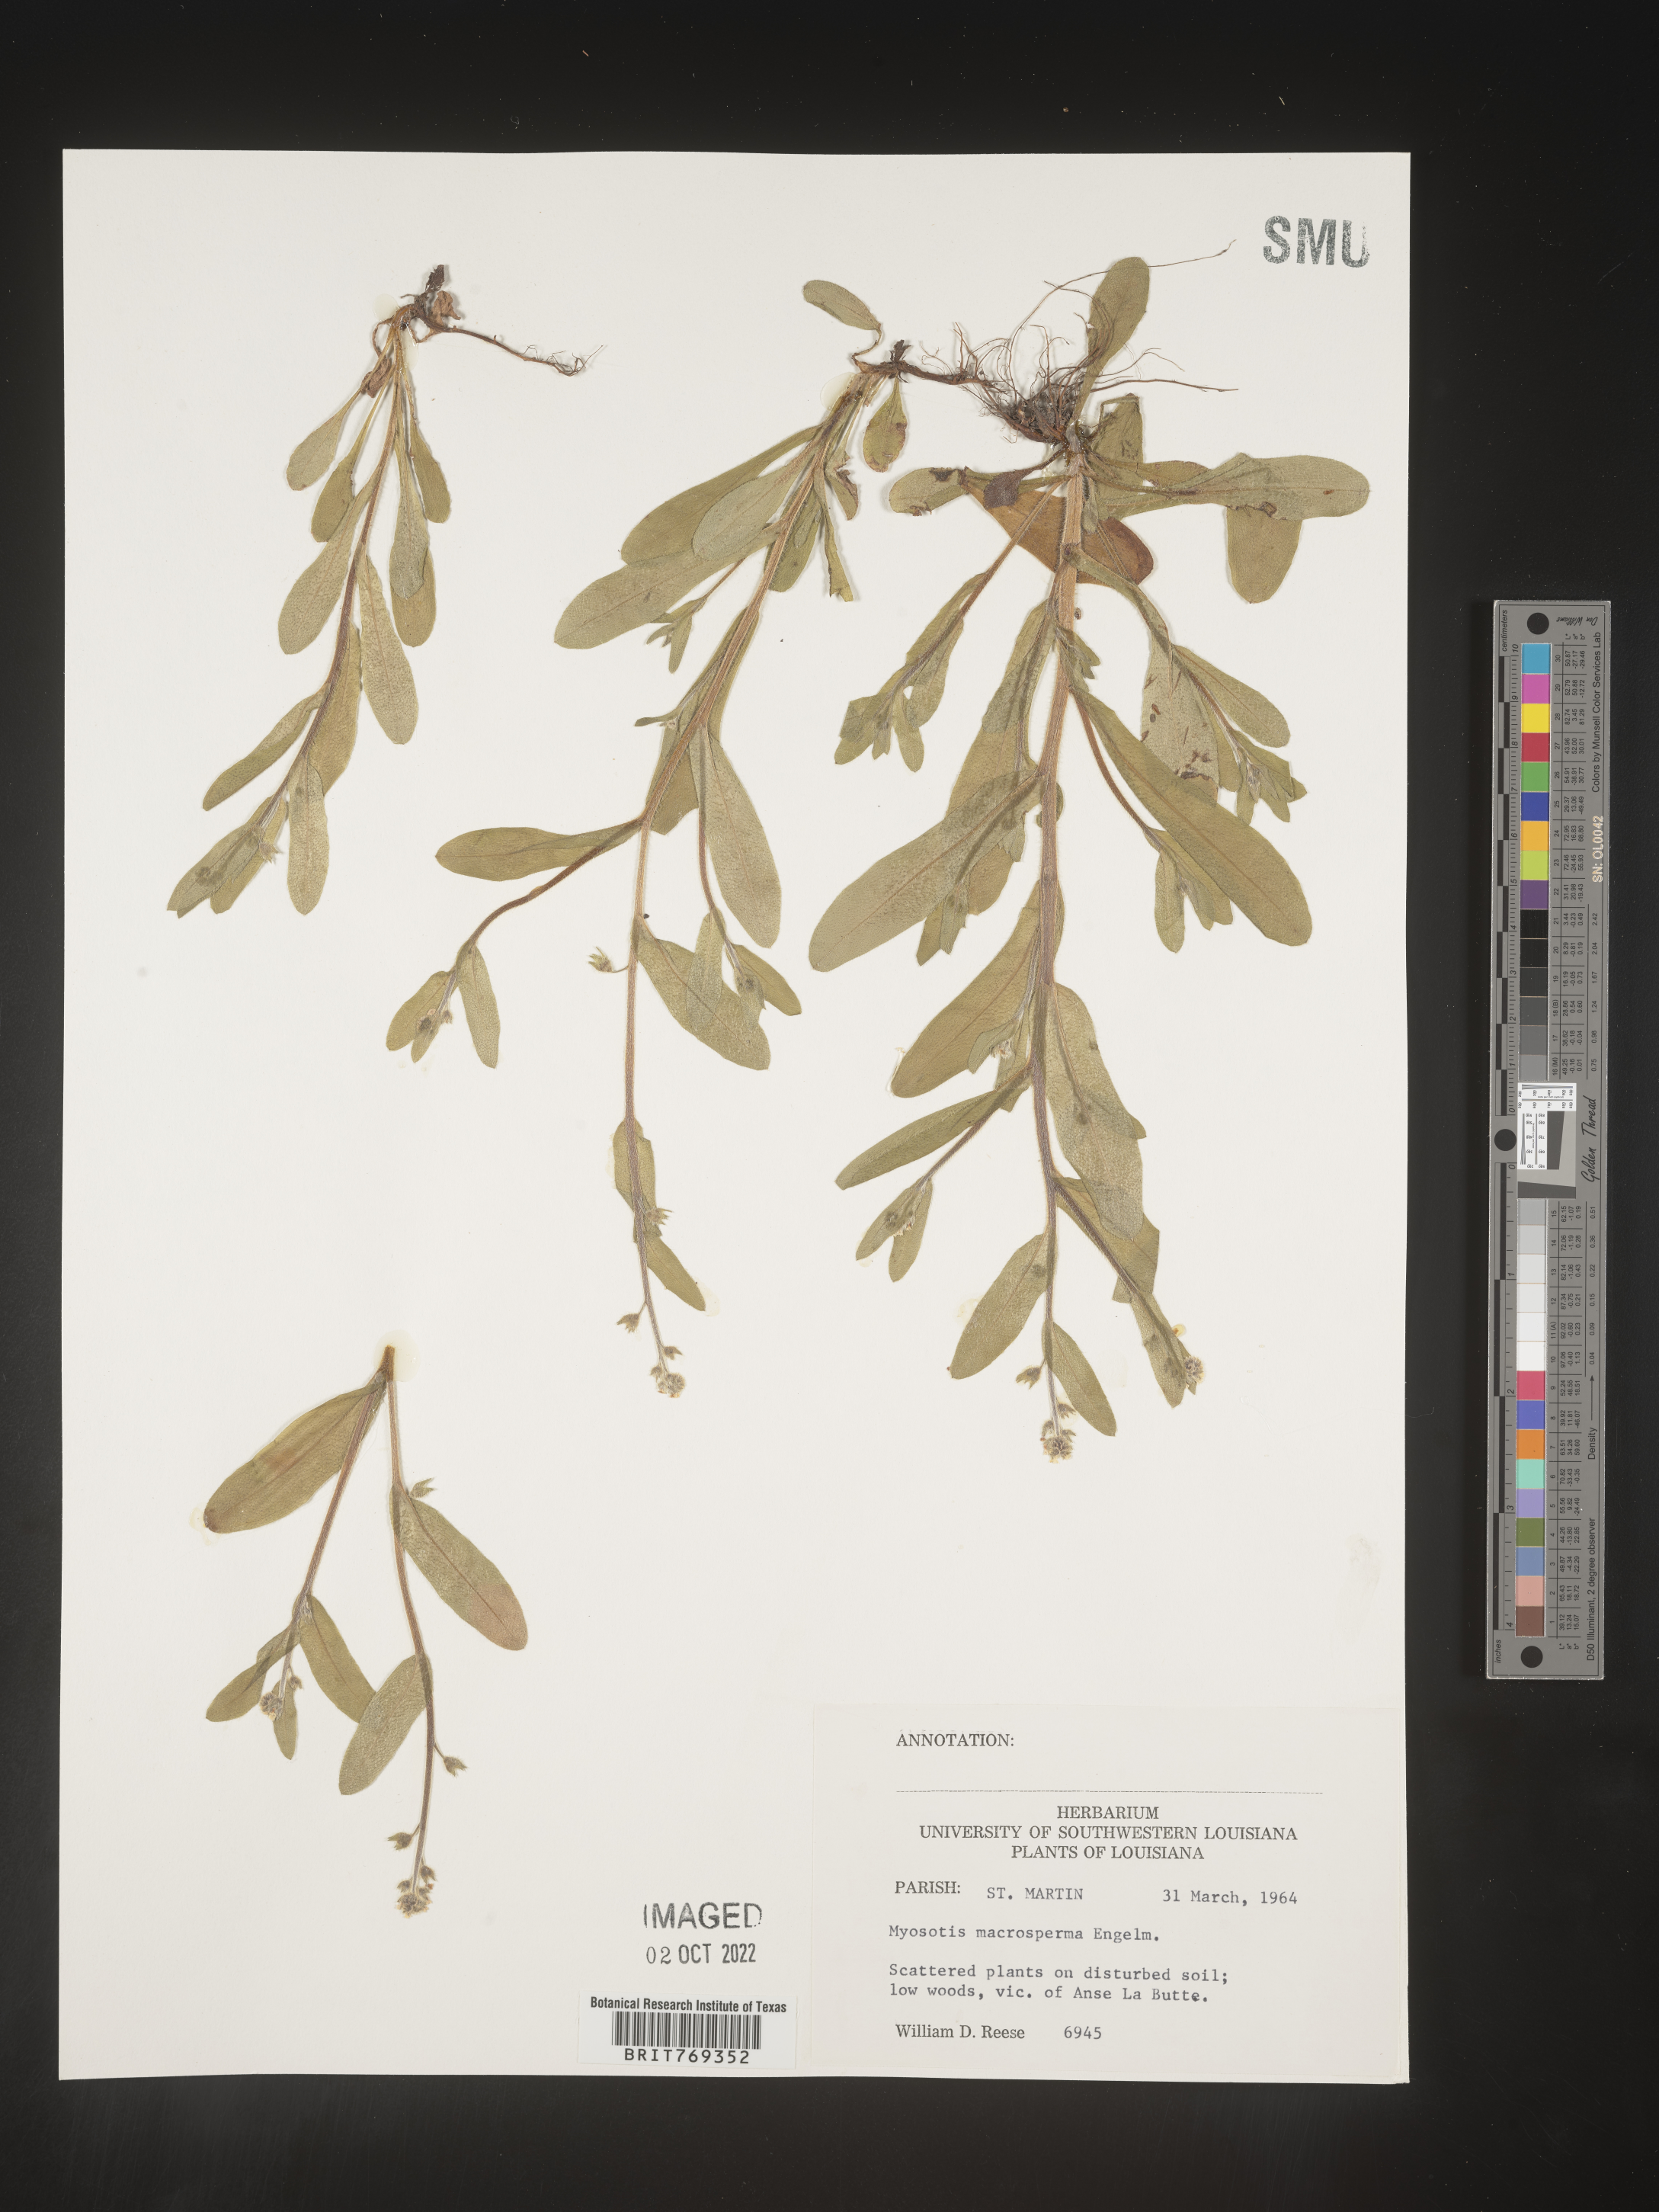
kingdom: Plantae
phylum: Tracheophyta
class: Magnoliopsida
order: Boraginales
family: Boraginaceae
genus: Myosotis
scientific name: Myosotis macrosperma
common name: Large-seed forget-me-not
